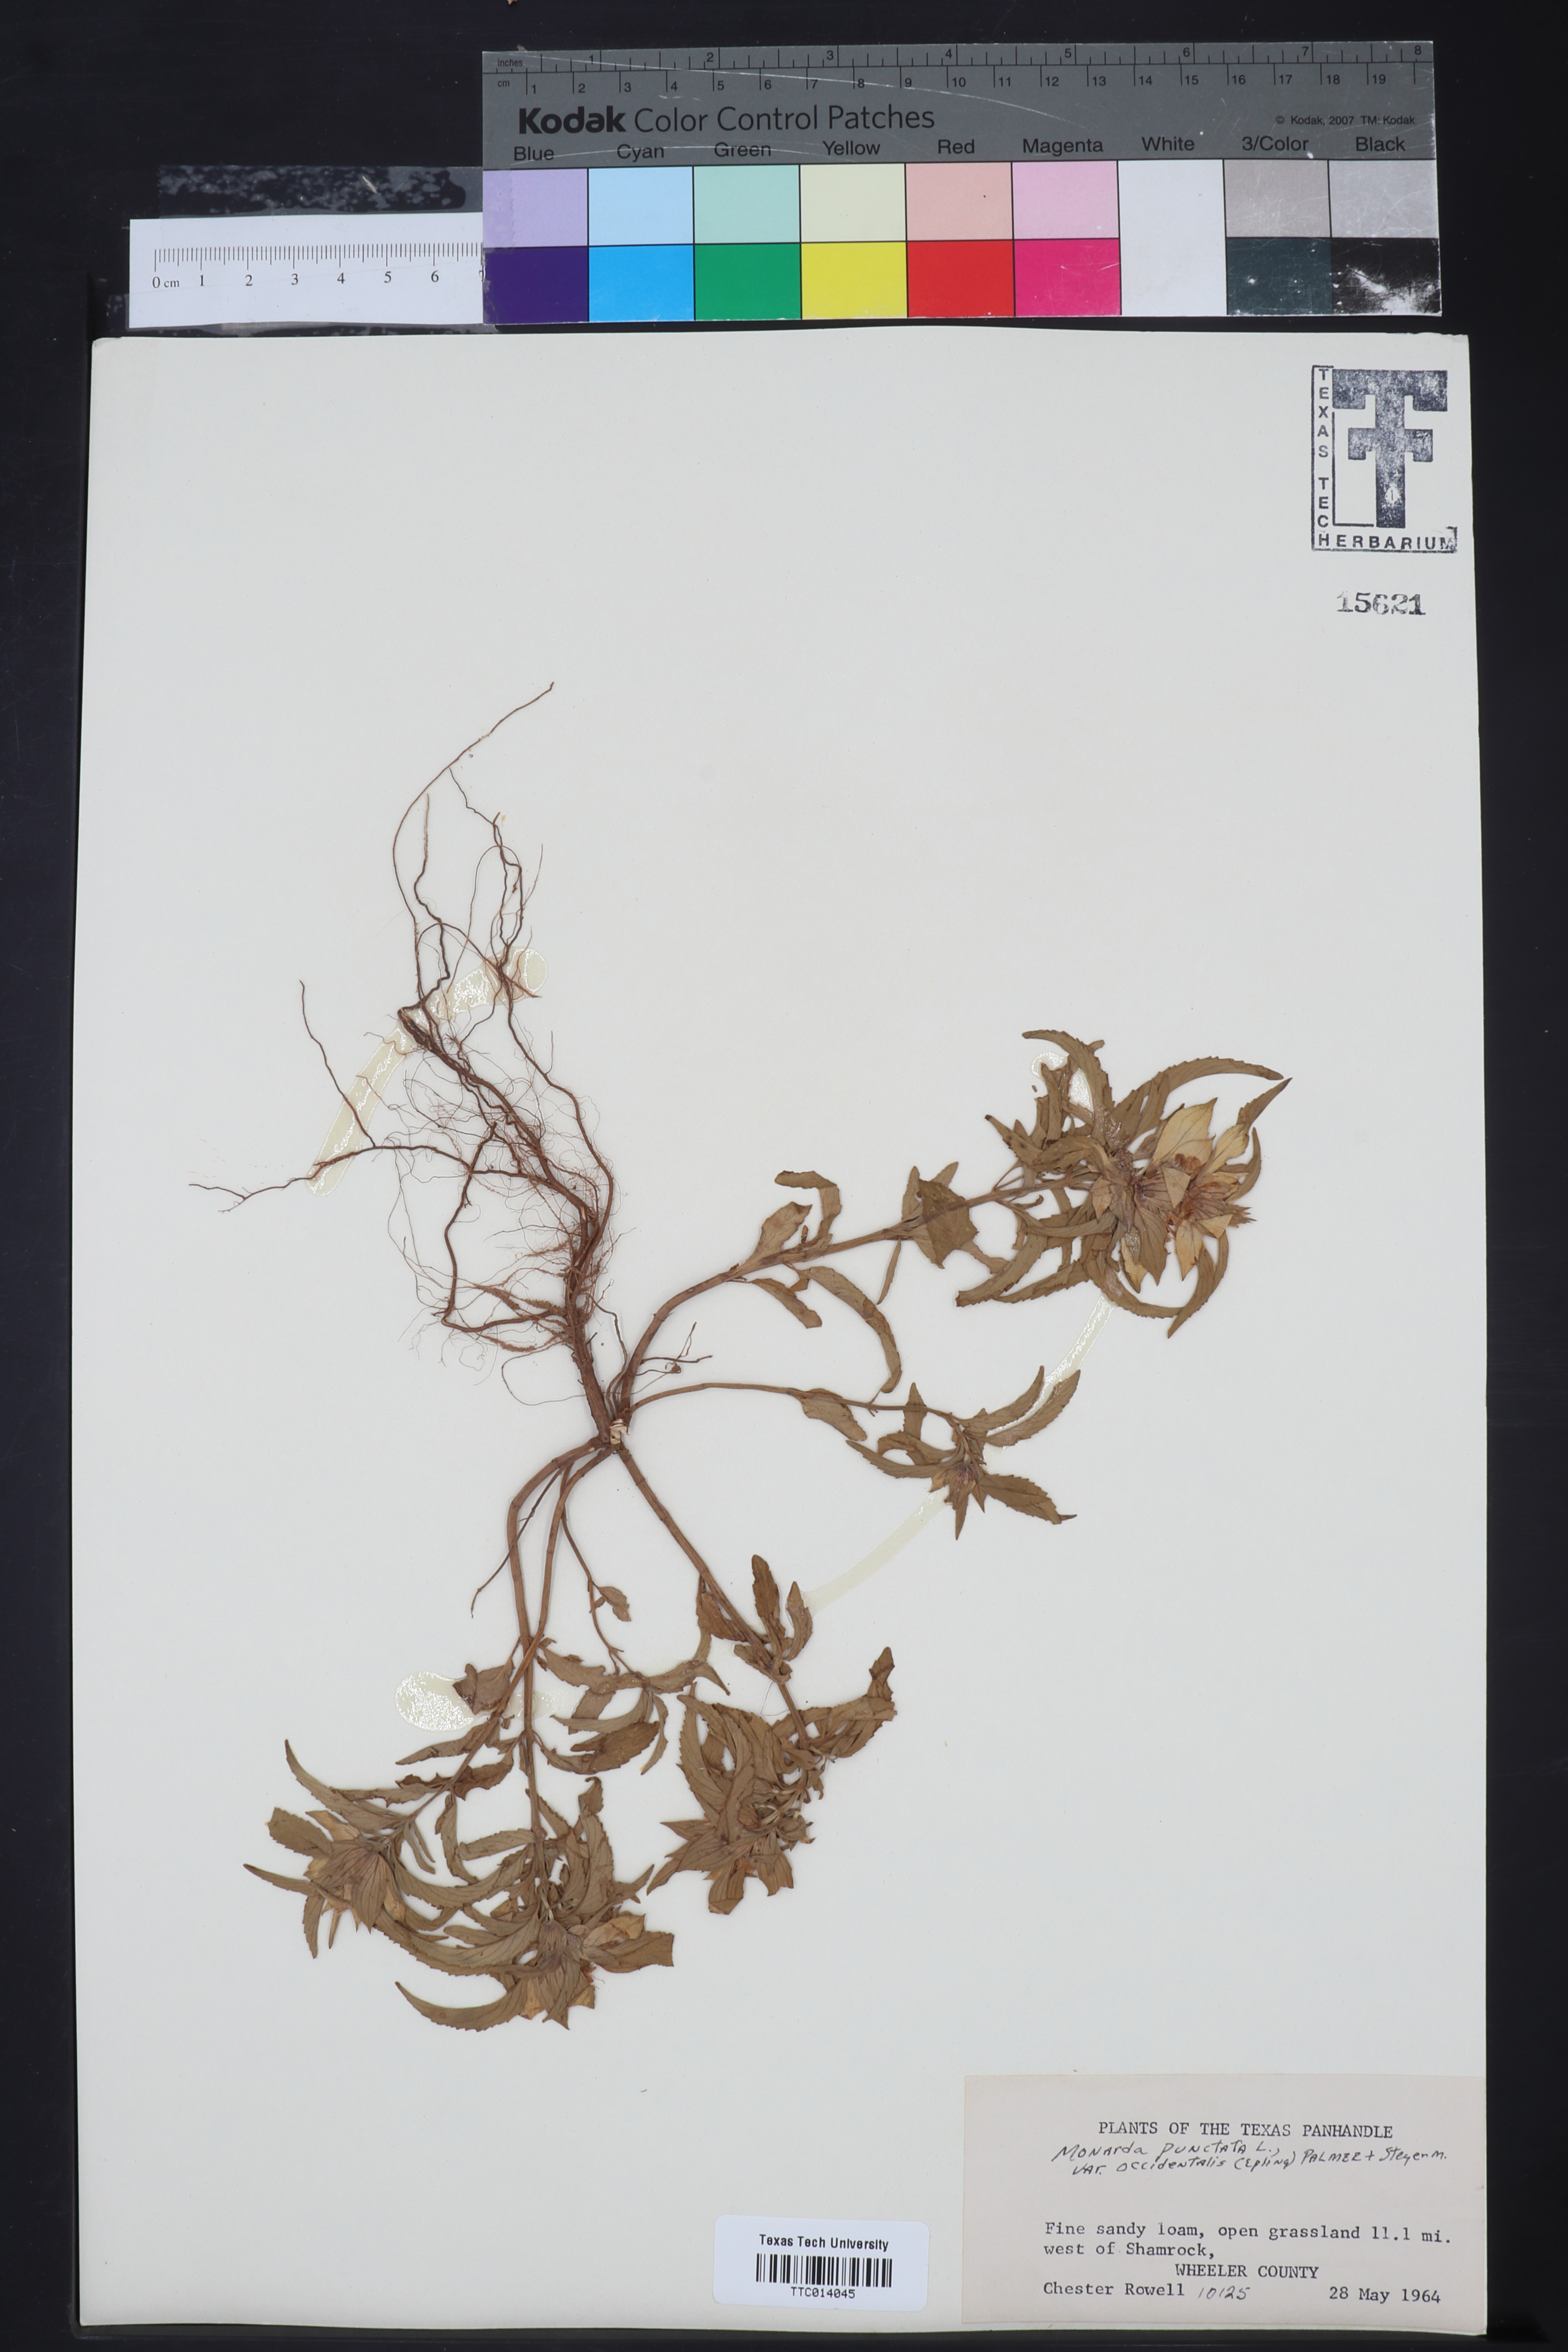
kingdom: Plantae
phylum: Tracheophyta
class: Magnoliopsida
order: Lamiales
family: Lamiaceae
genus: Monarda
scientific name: Monarda punctata
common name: Dotted monarda
